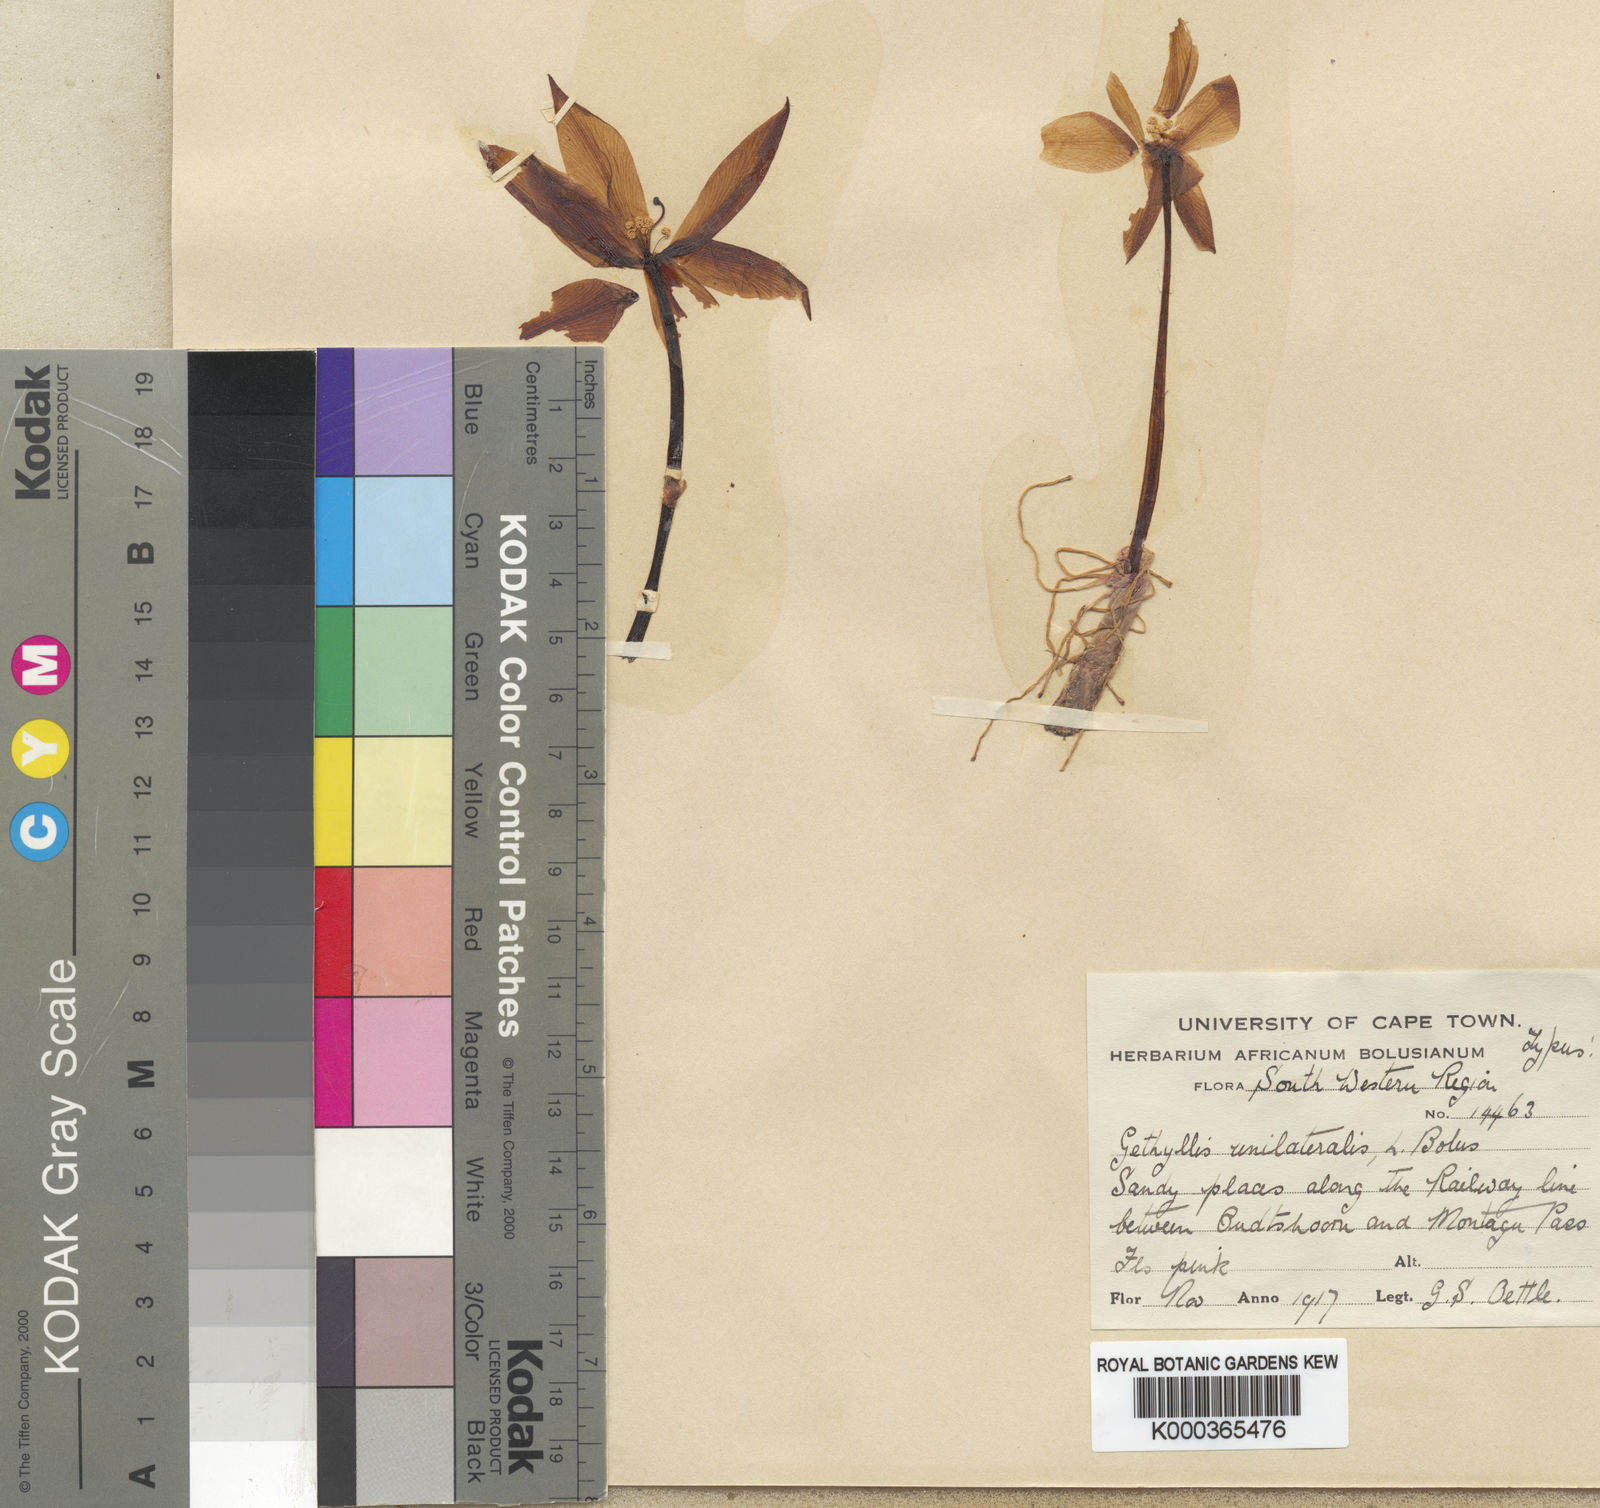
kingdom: Plantae
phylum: Tracheophyta
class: Liliopsida
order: Asparagales
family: Amaryllidaceae
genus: Gethyllis
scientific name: Gethyllis spiralis
